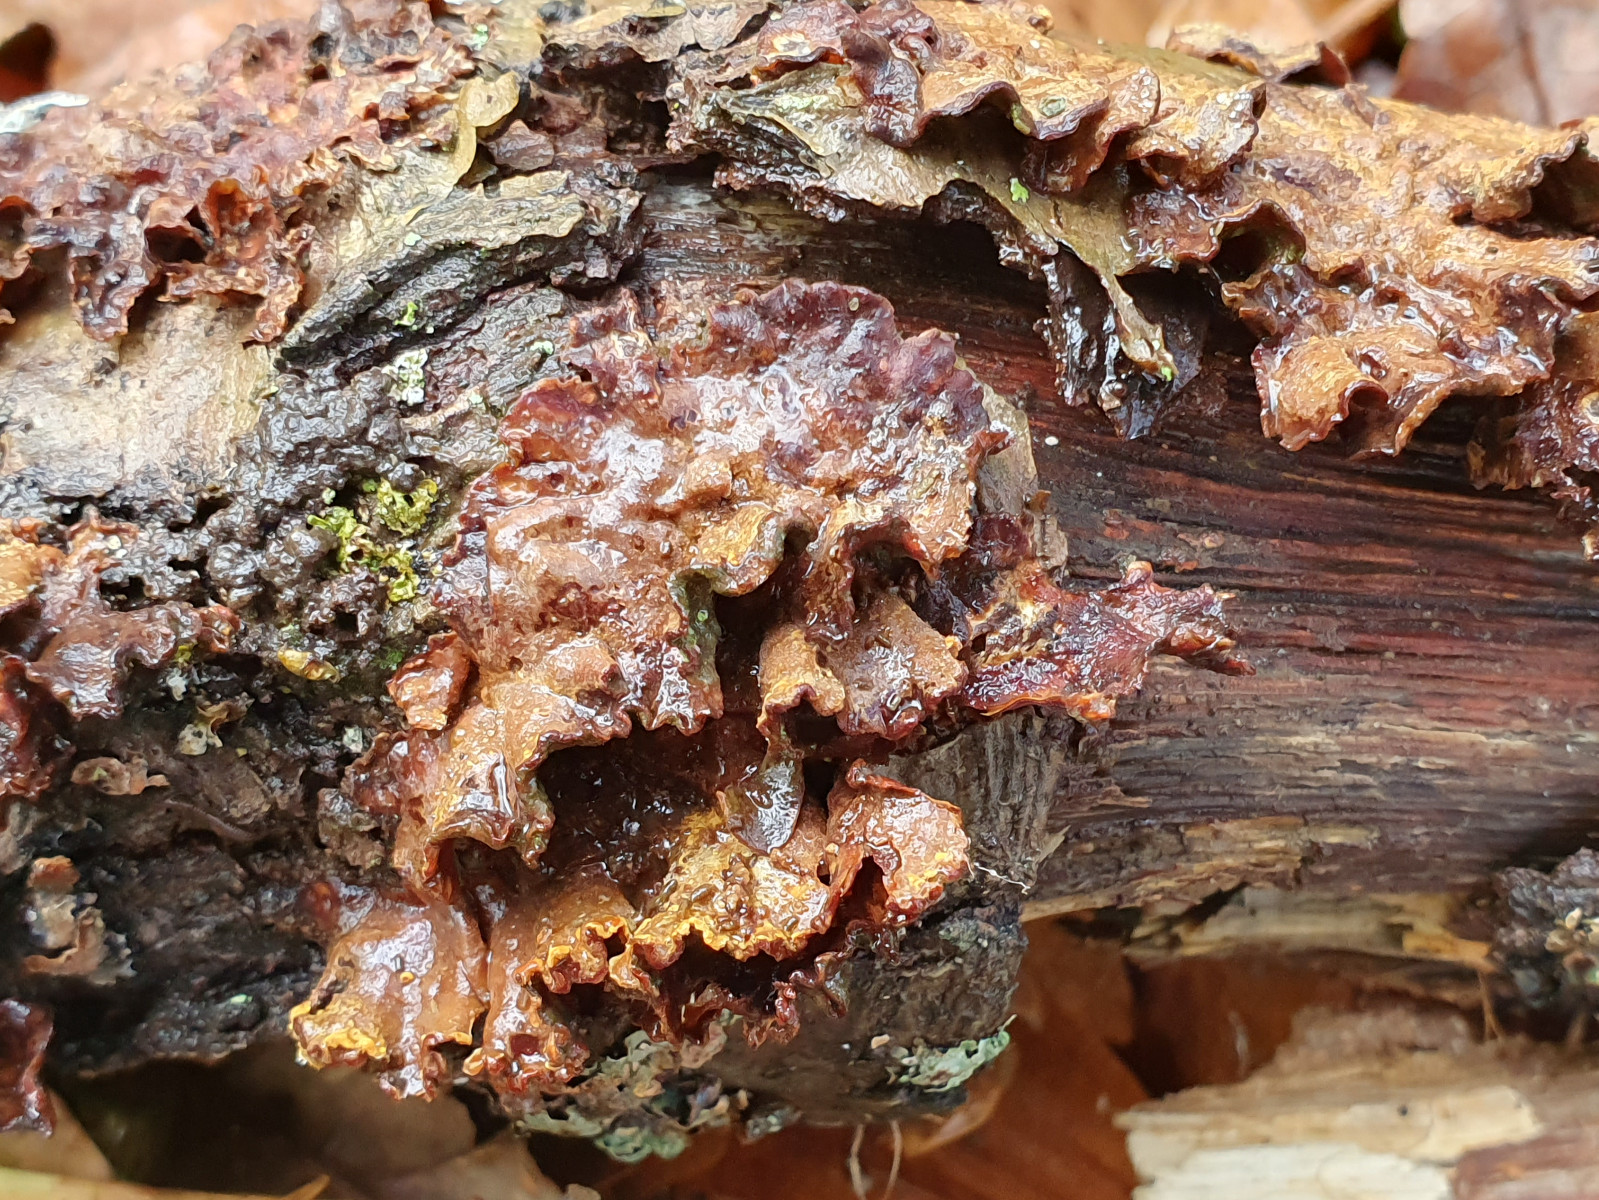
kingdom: Fungi
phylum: Basidiomycota
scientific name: Basidiomycota
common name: basidiesvampe
